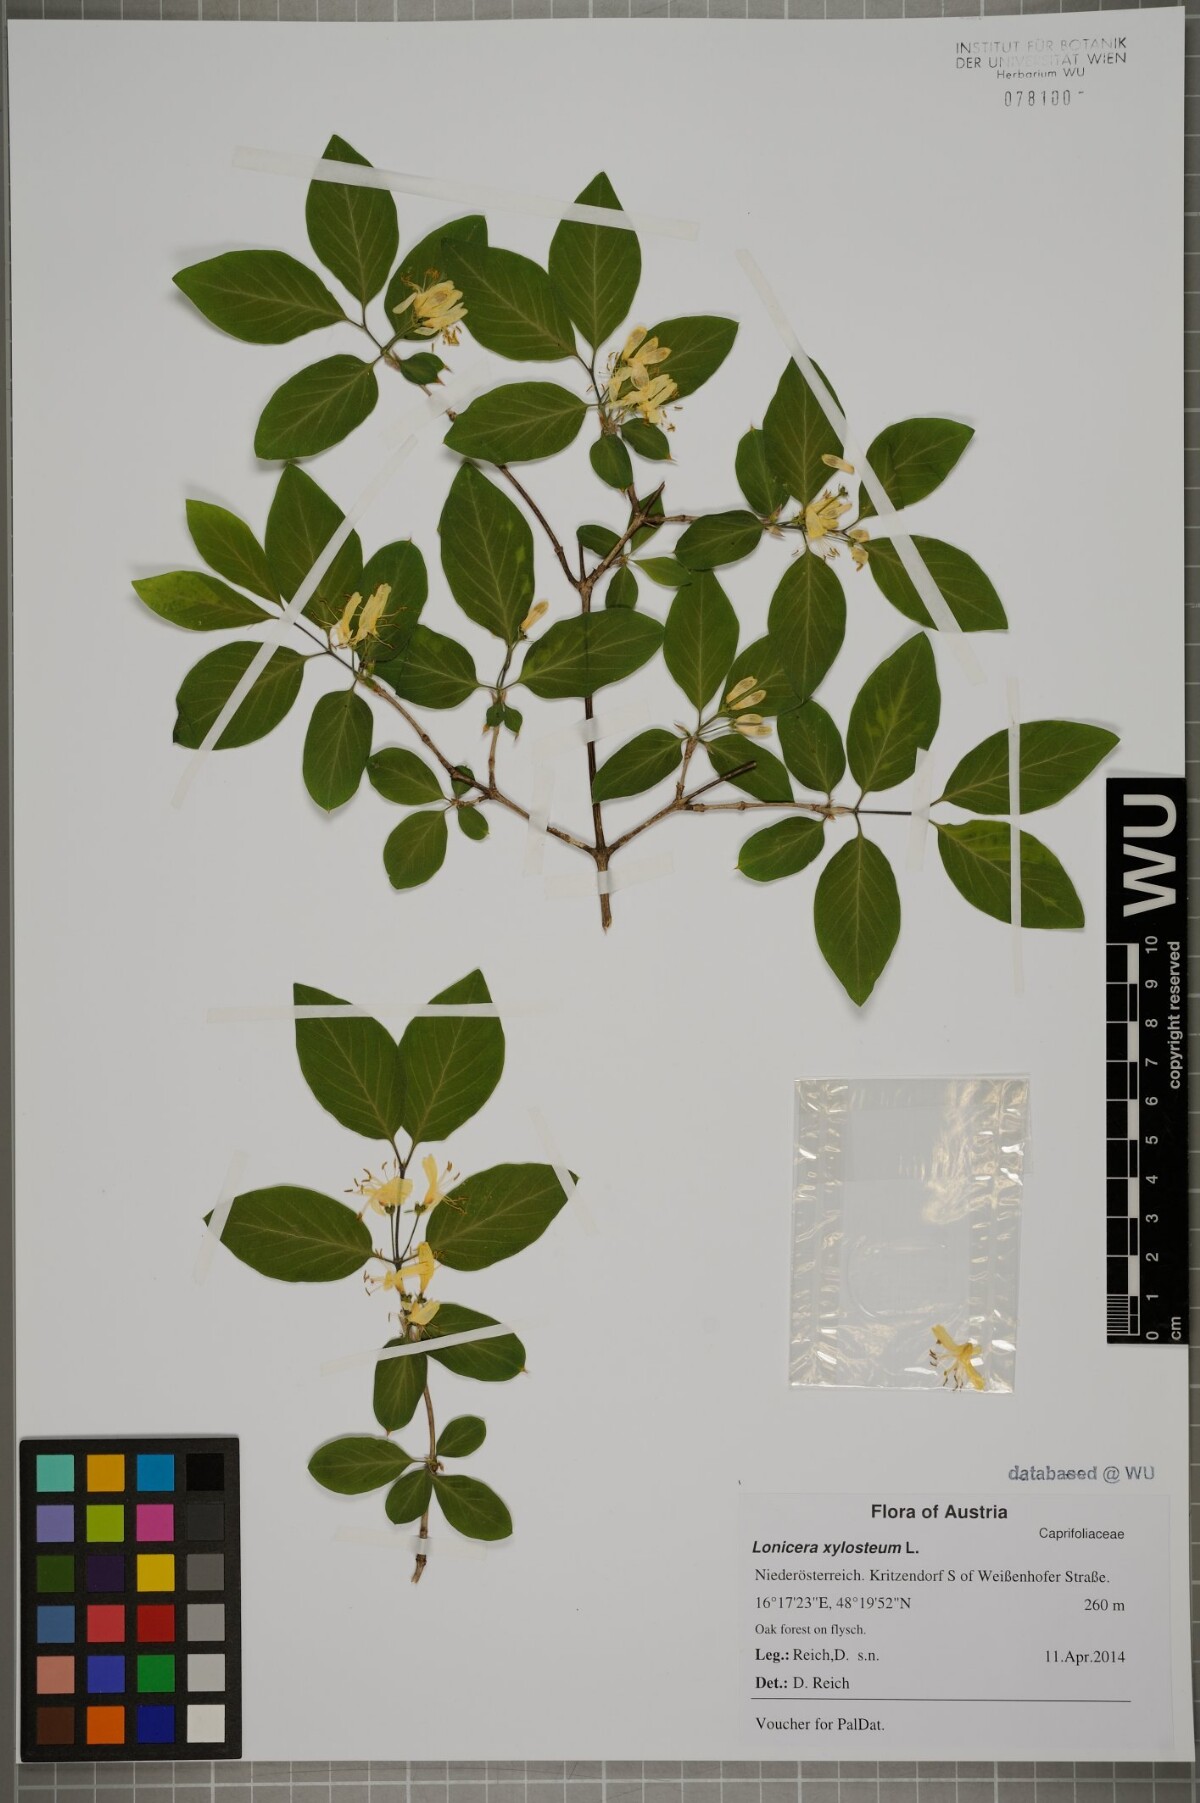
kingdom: Plantae
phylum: Tracheophyta
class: Magnoliopsida
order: Dipsacales
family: Caprifoliaceae
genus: Lonicera
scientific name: Lonicera xylosteum
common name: Fly honeysuckle
